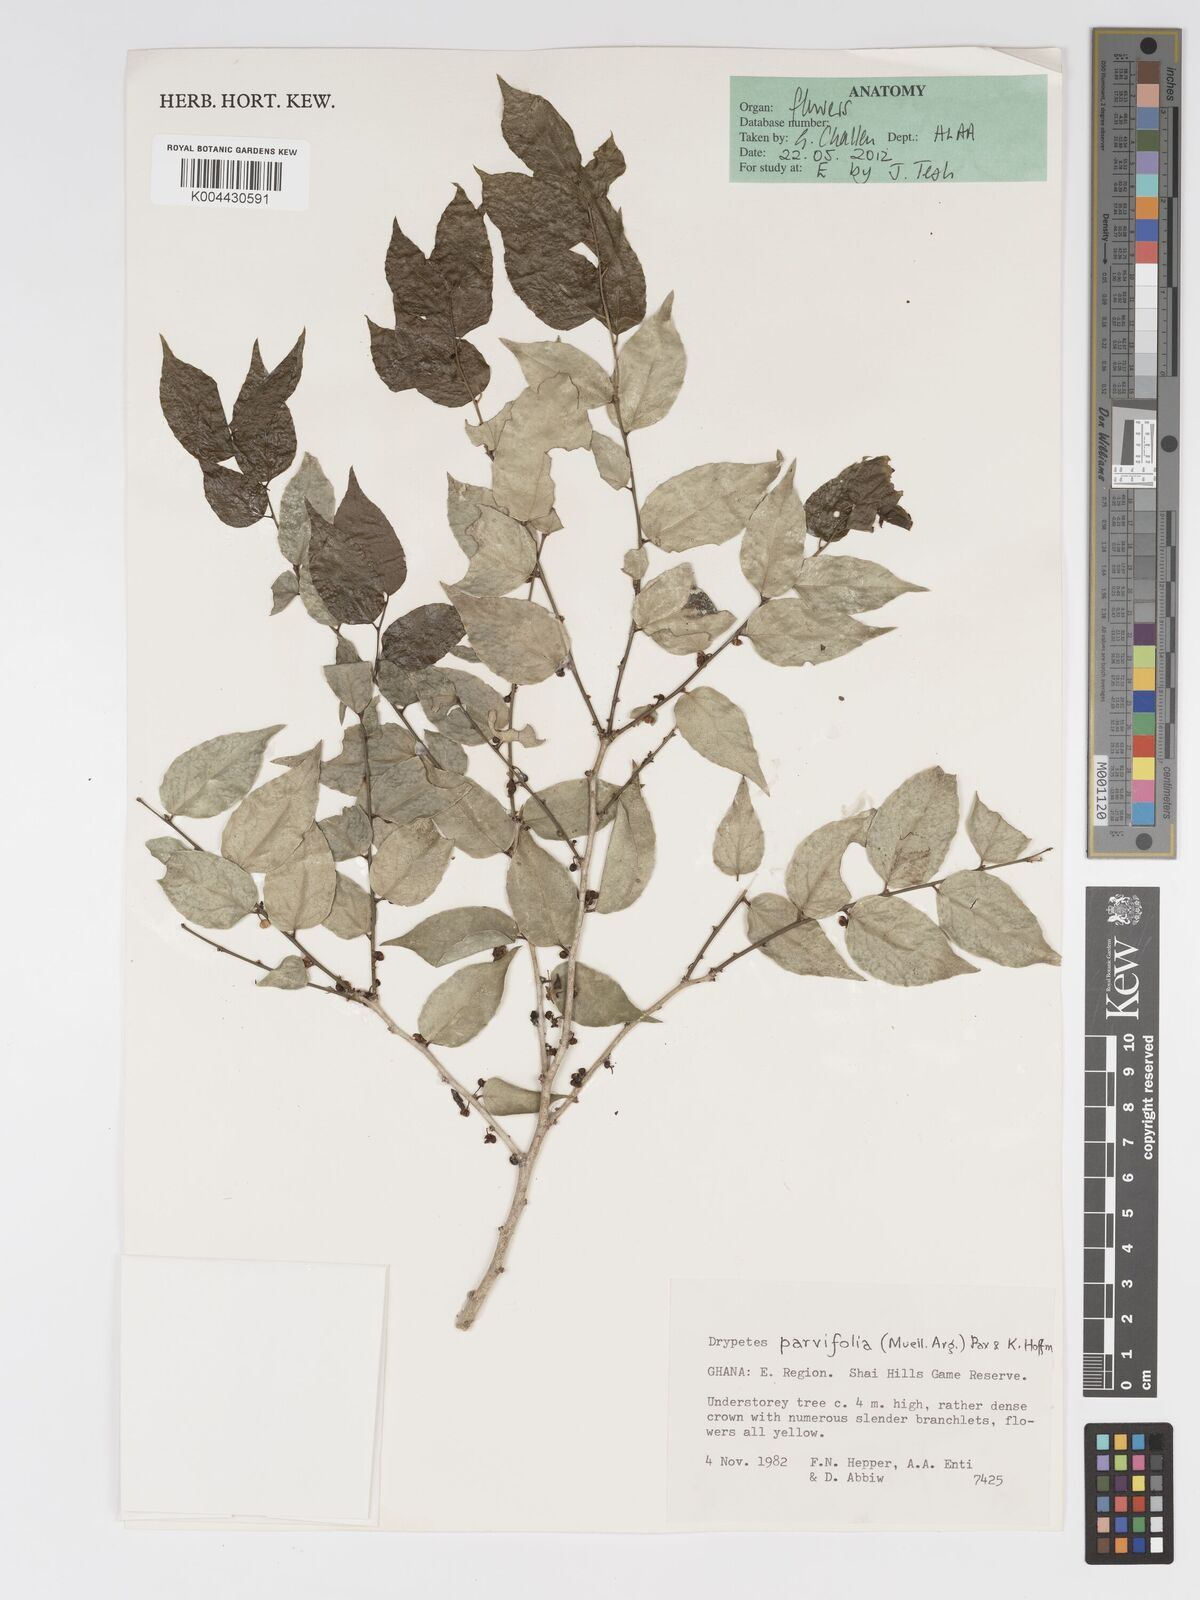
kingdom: Plantae
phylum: Tracheophyta
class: Magnoliopsida
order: Malpighiales
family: Putranjivaceae
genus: Drypetes
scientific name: Drypetes parvifolia
